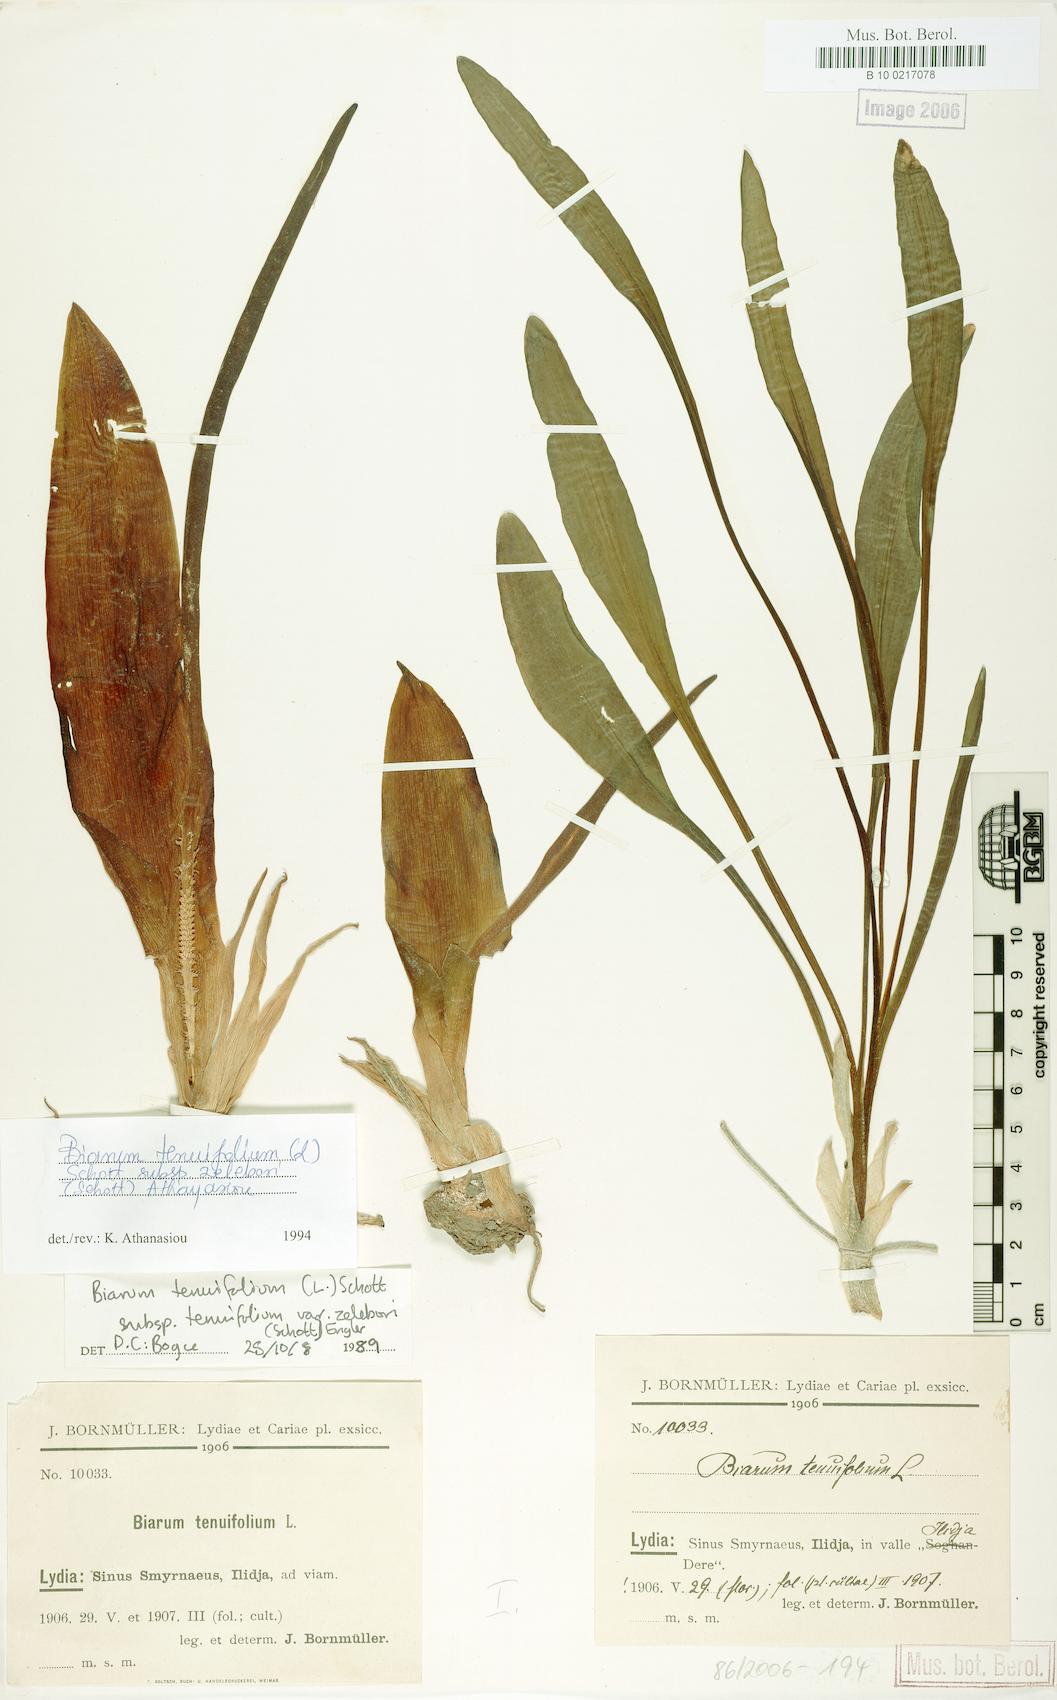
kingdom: Plantae
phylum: Tracheophyta
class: Liliopsida
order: Alismatales
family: Araceae
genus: Biarum
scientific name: Biarum tenuifolium
